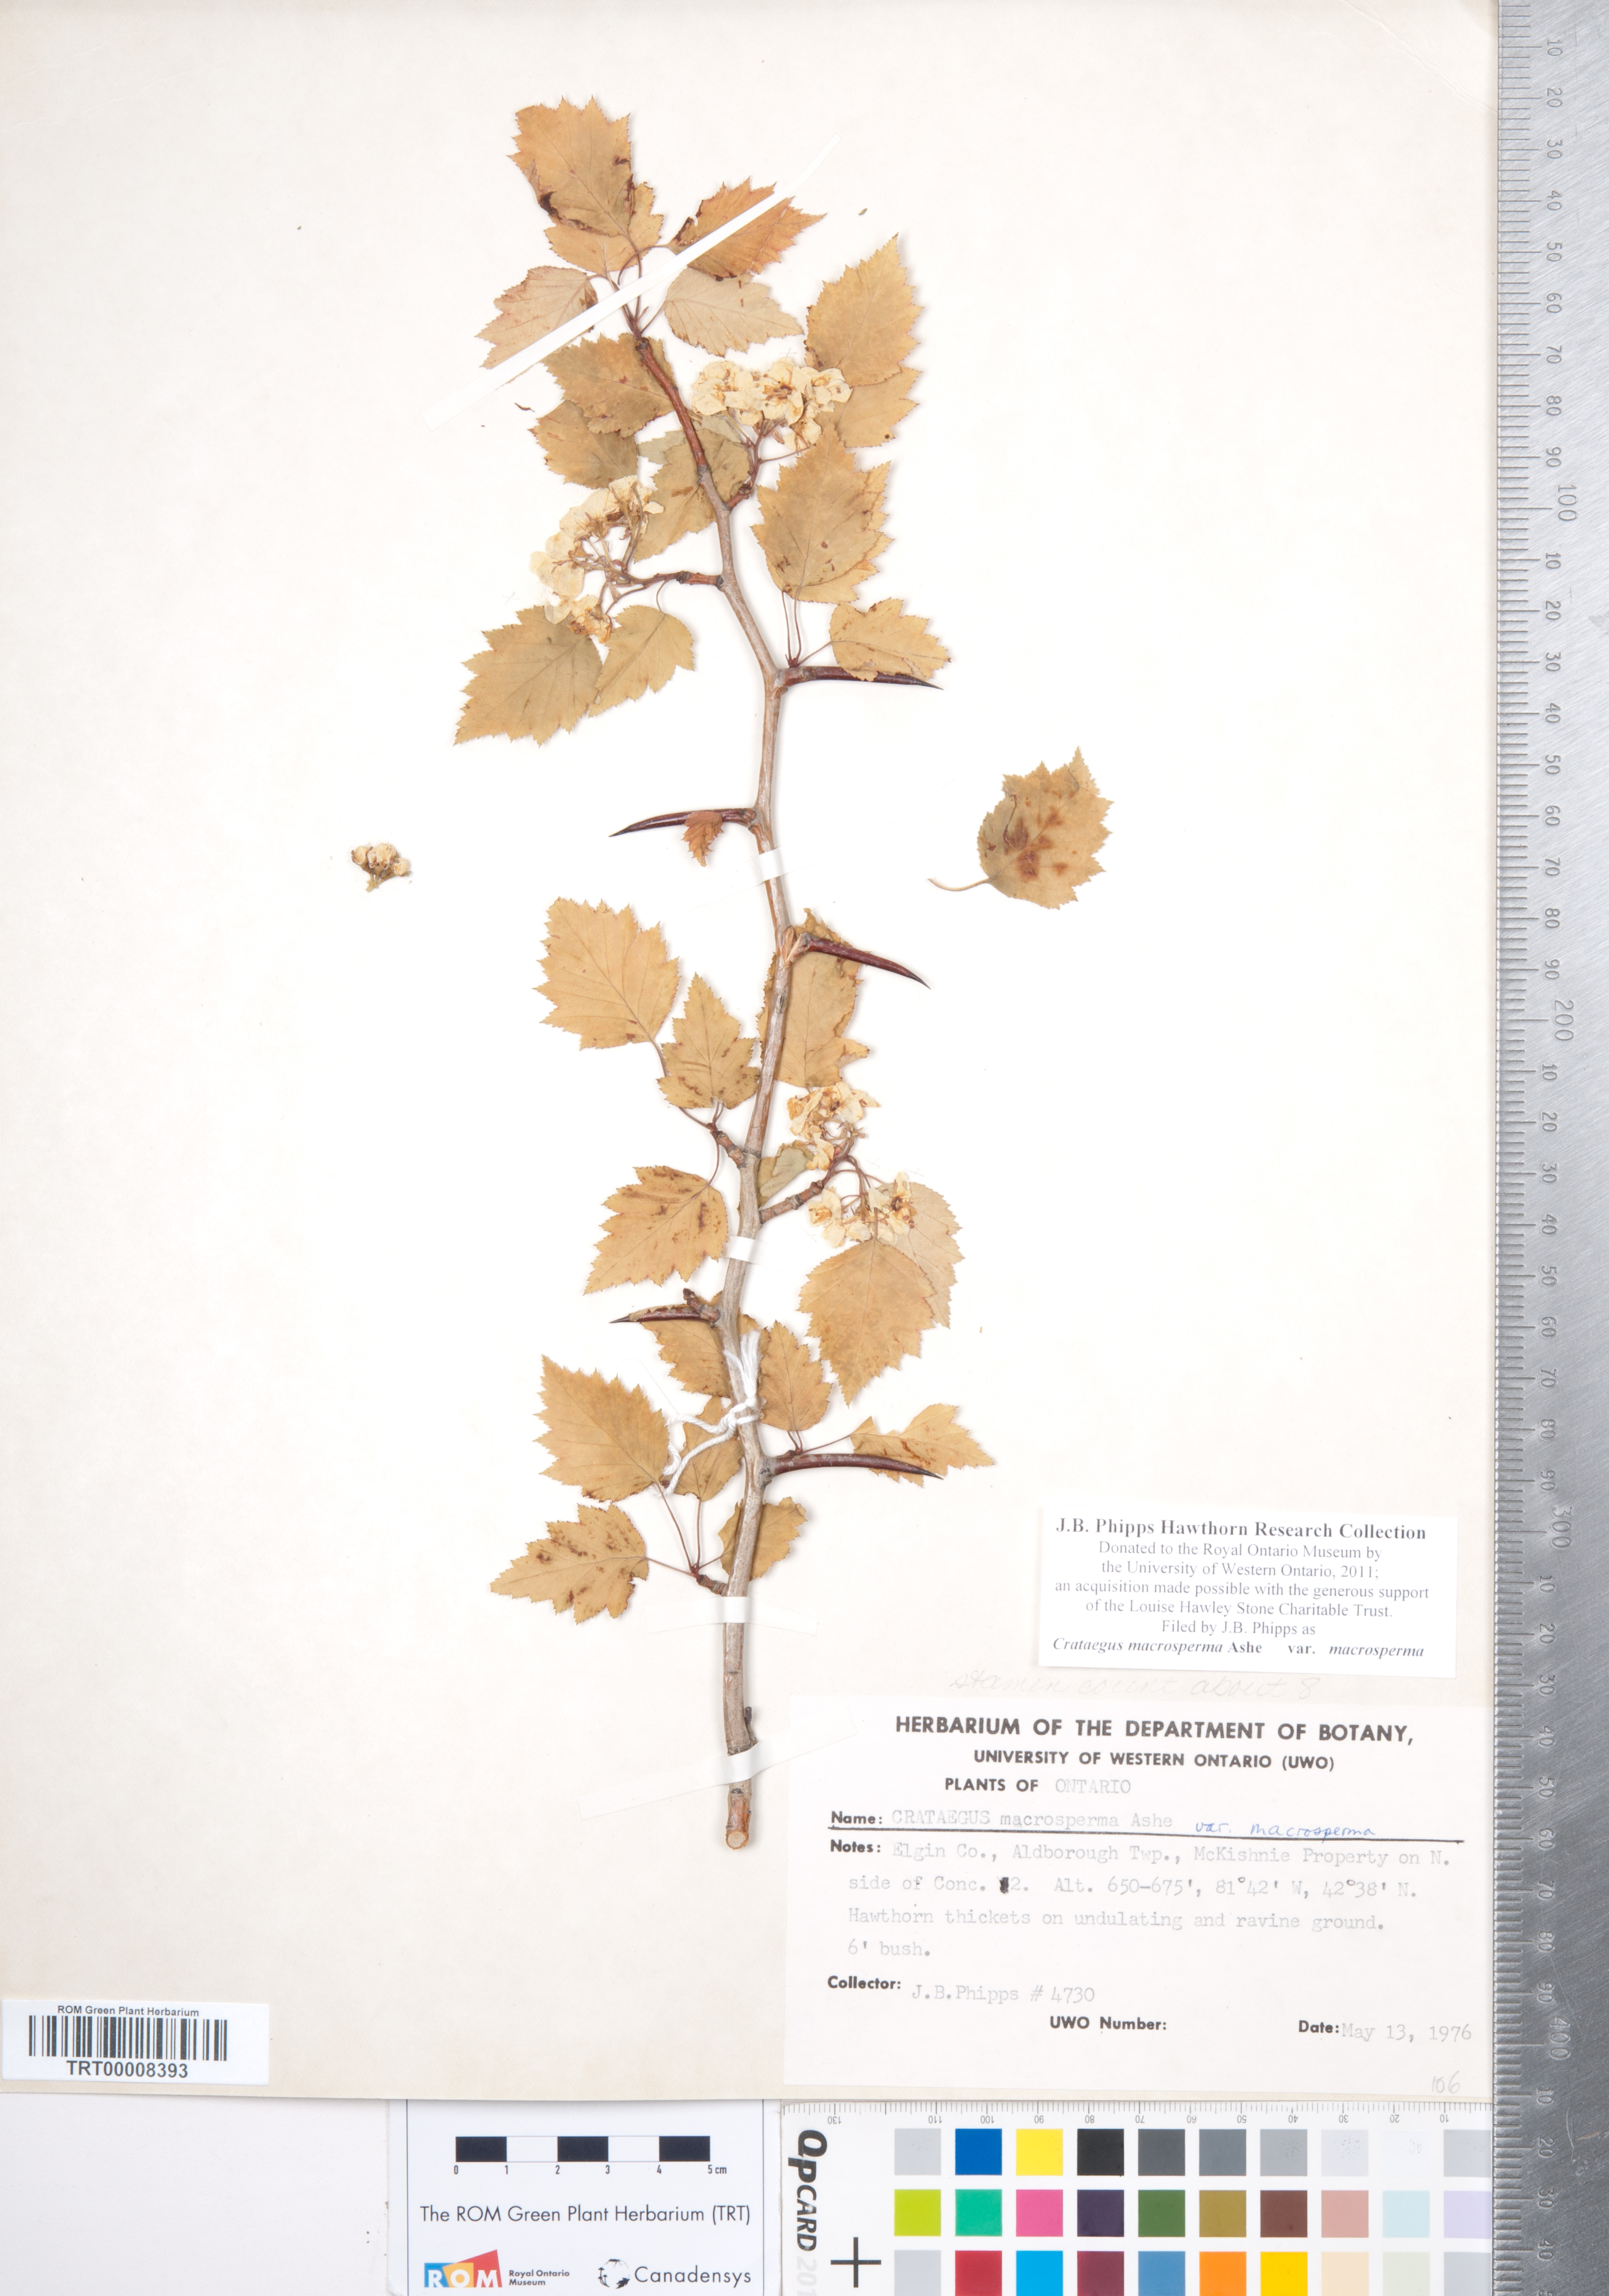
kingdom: Plantae
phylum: Tracheophyta
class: Magnoliopsida
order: Rosales
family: Rosaceae
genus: Crataegus
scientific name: Crataegus macrosperma
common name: Variable hawthorn
